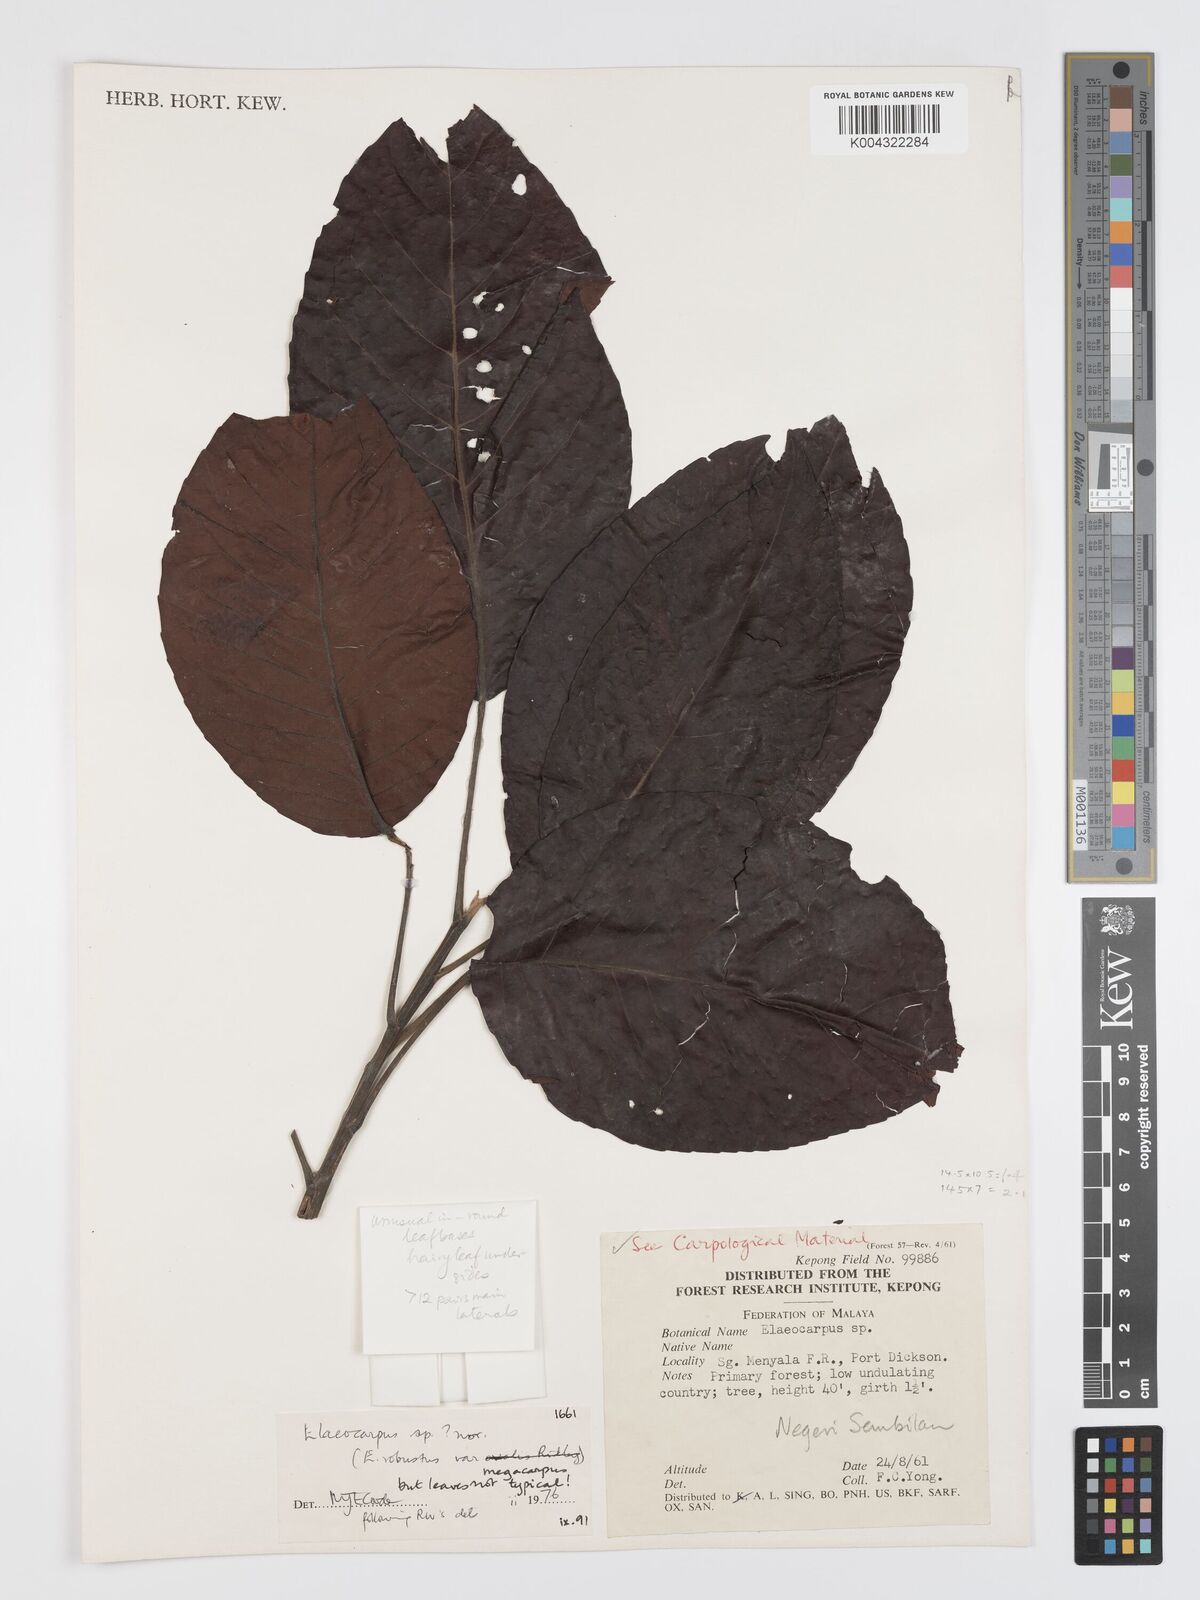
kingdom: Plantae
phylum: Tracheophyta
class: Magnoliopsida
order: Oxalidales
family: Elaeocarpaceae
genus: Elaeocarpus
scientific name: Elaeocarpus robustus
